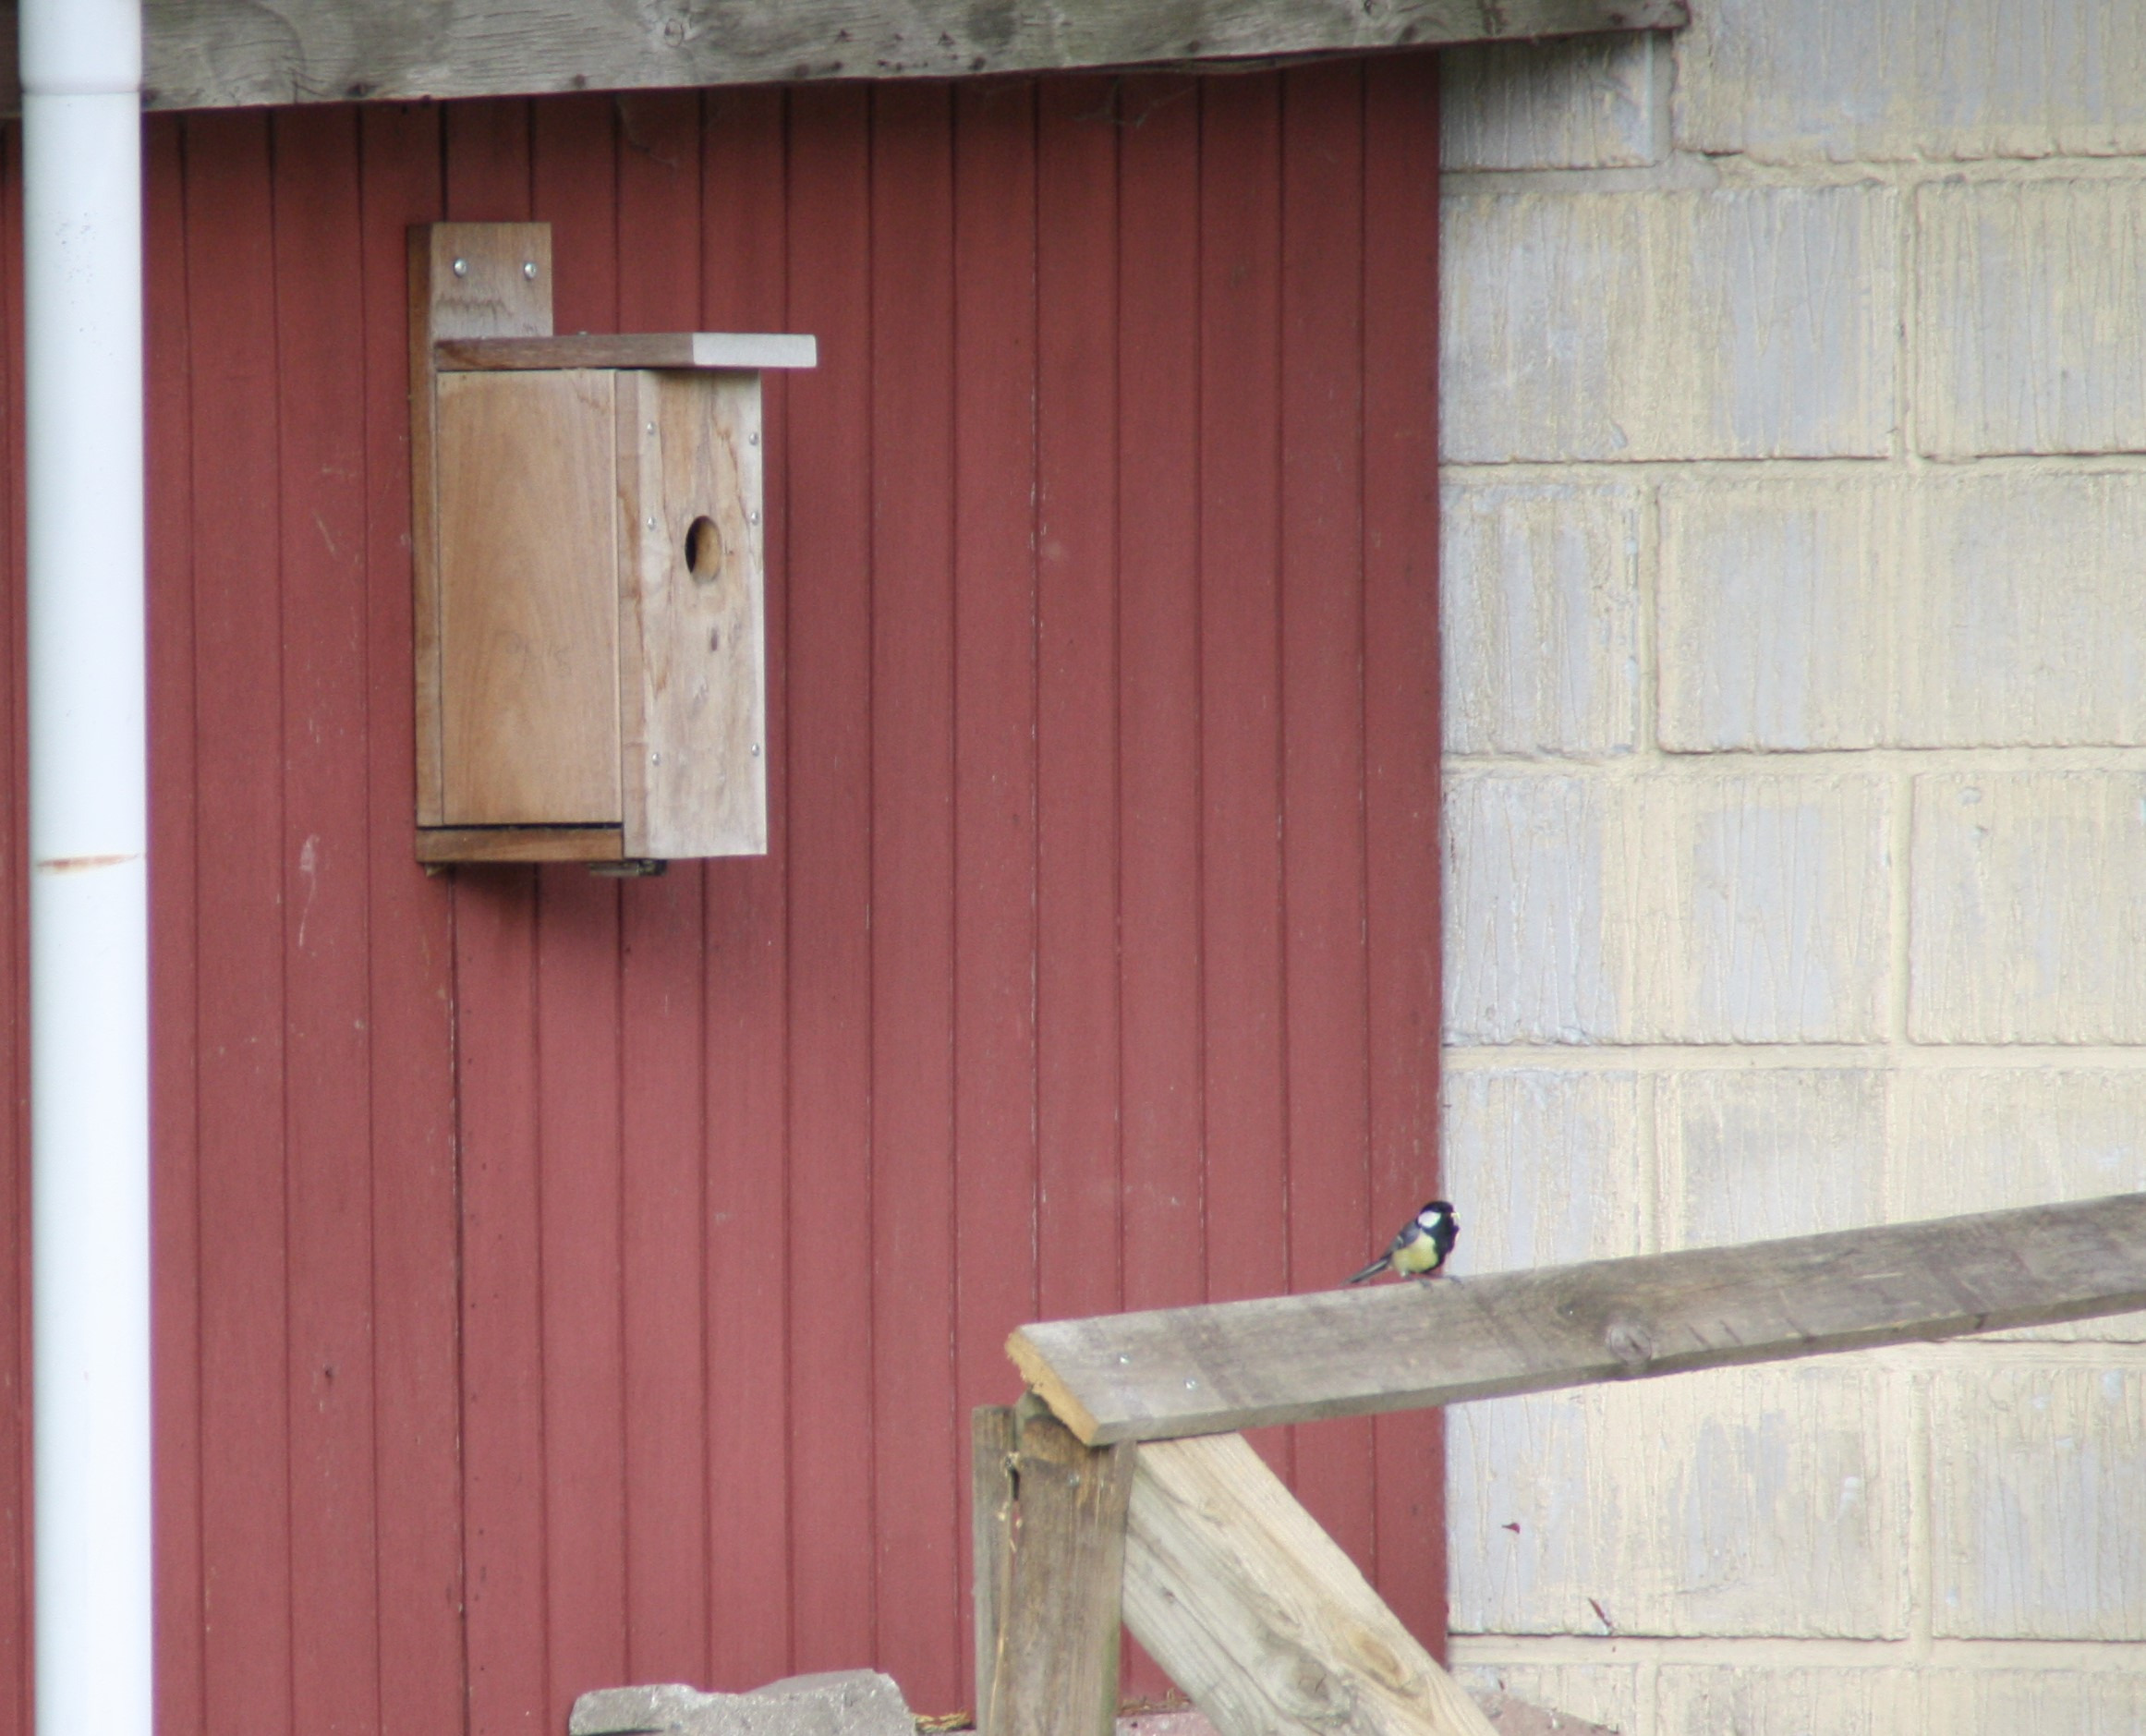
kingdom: Animalia
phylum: Chordata
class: Aves
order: Passeriformes
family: Paridae
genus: Parus
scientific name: Parus major
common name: Musvit
